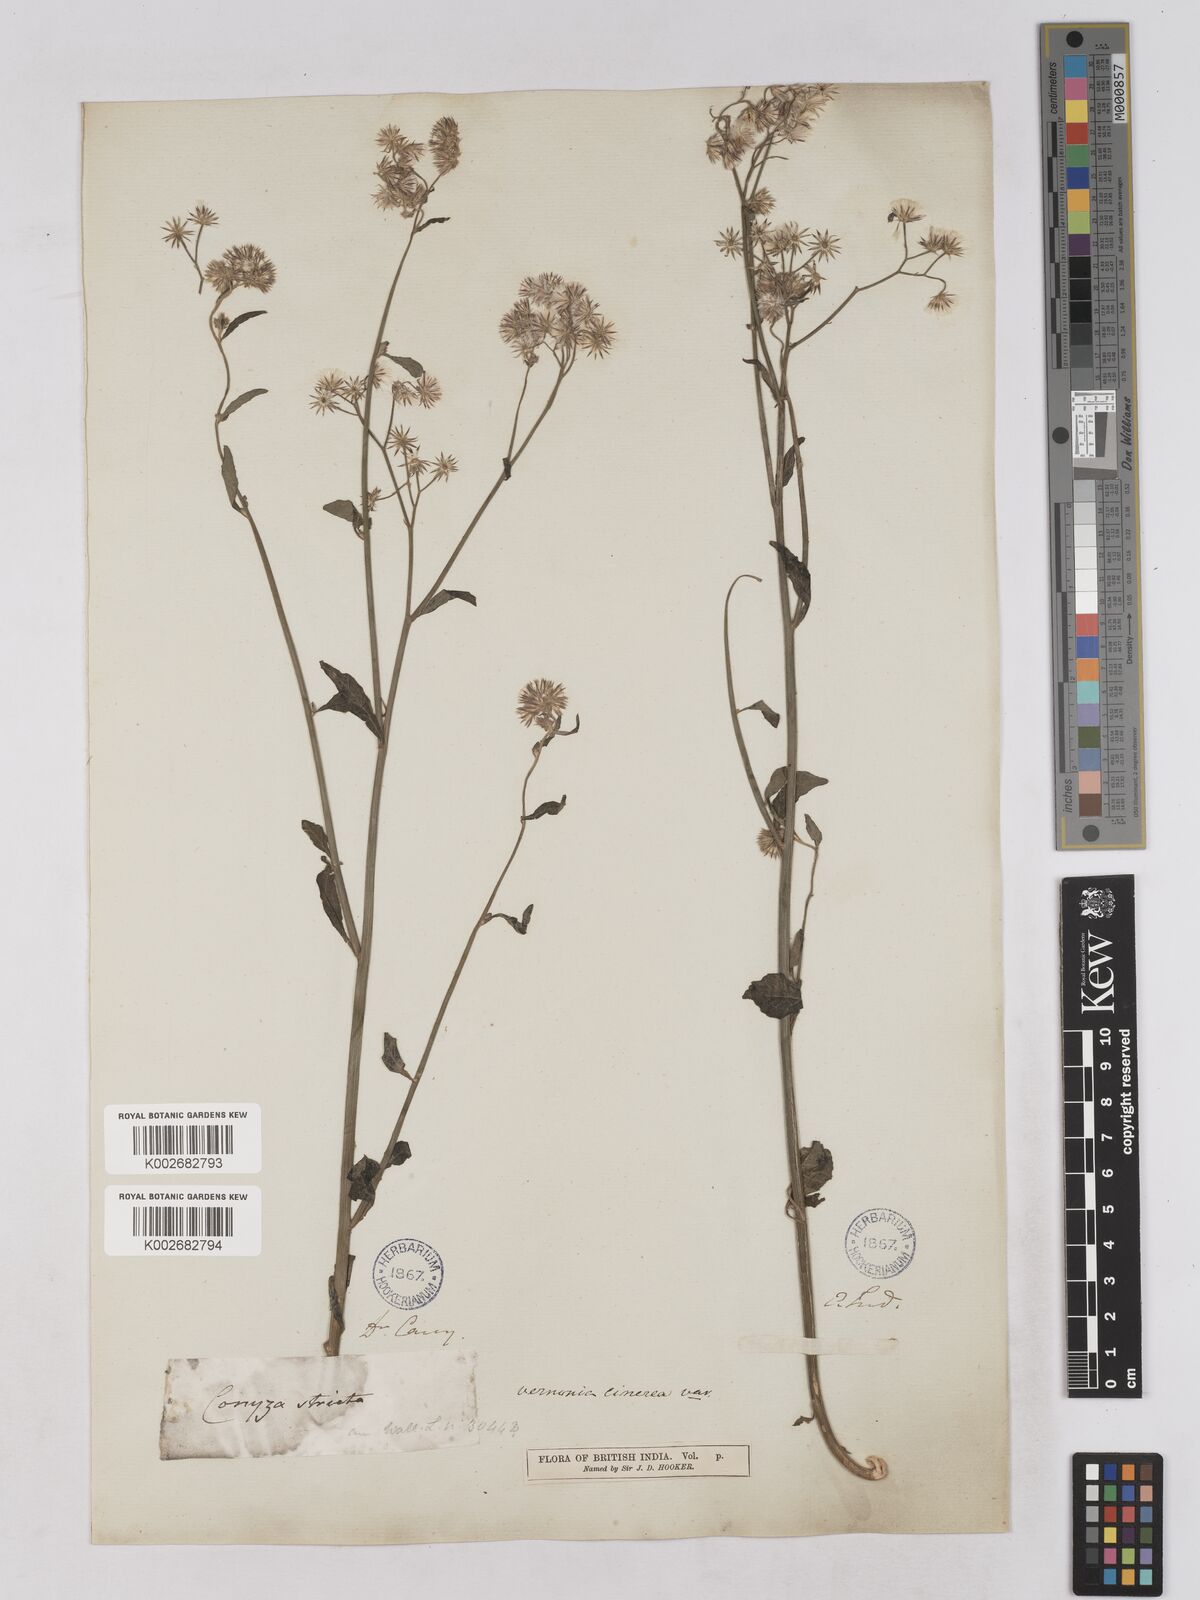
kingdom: Plantae
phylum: Tracheophyta
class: Magnoliopsida
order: Asterales
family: Asteraceae
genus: Cyanthillium
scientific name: Cyanthillium cinereum
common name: Little ironweed
